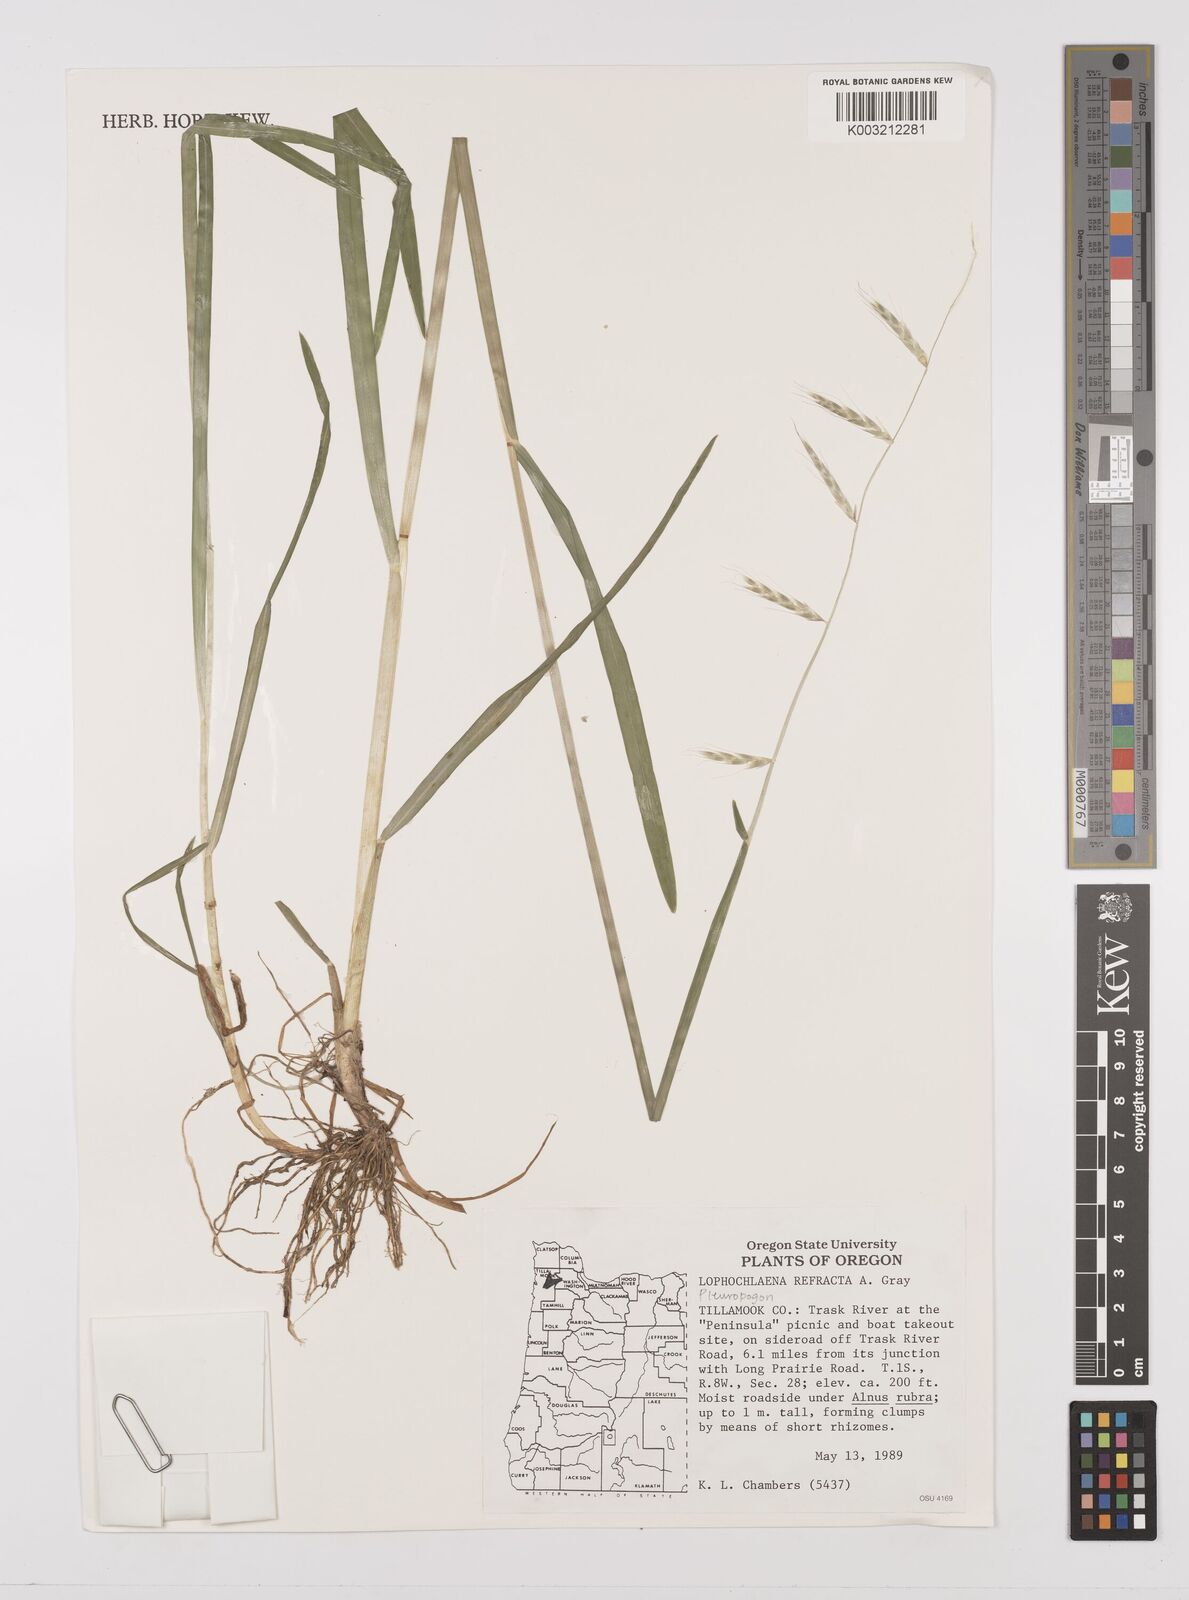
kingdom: Plantae
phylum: Tracheophyta
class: Liliopsida
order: Poales
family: Poaceae
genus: Pleuropogon
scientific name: Pleuropogon refractus
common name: Nodding false semaphoregrass
